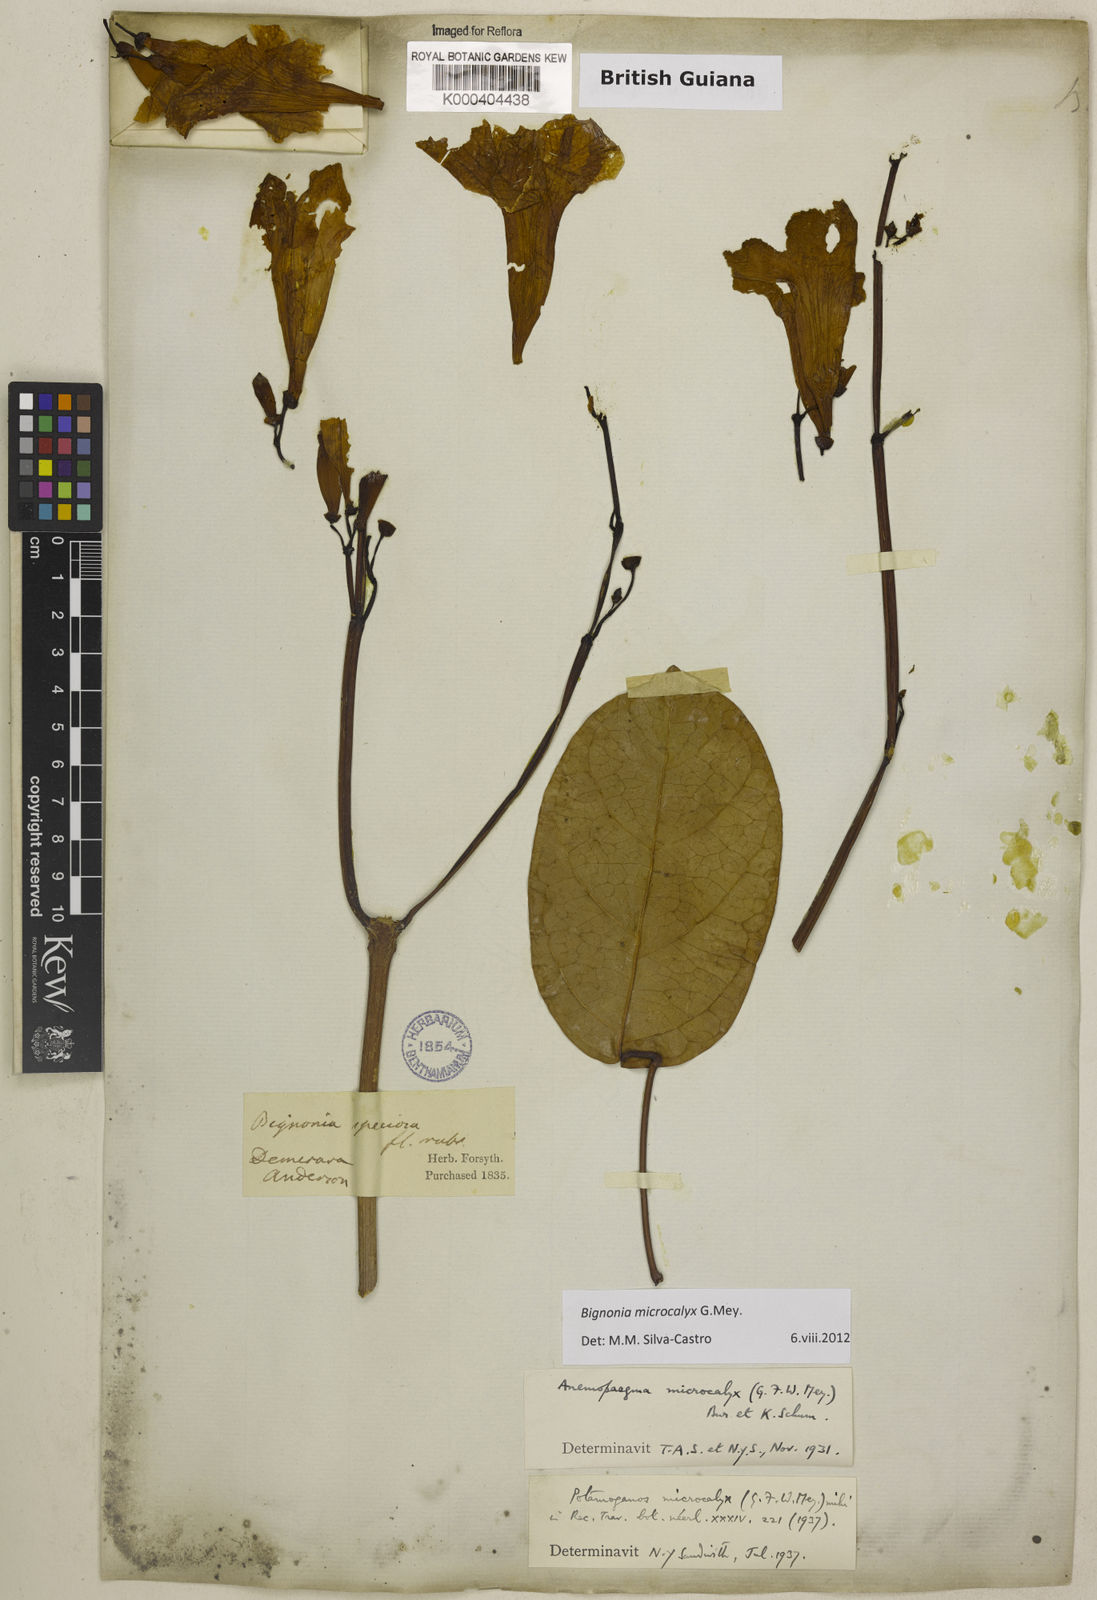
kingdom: Plantae
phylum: Tracheophyta
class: Magnoliopsida
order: Lamiales
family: Bignoniaceae
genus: Bignonia
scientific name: Bignonia microcalyx
